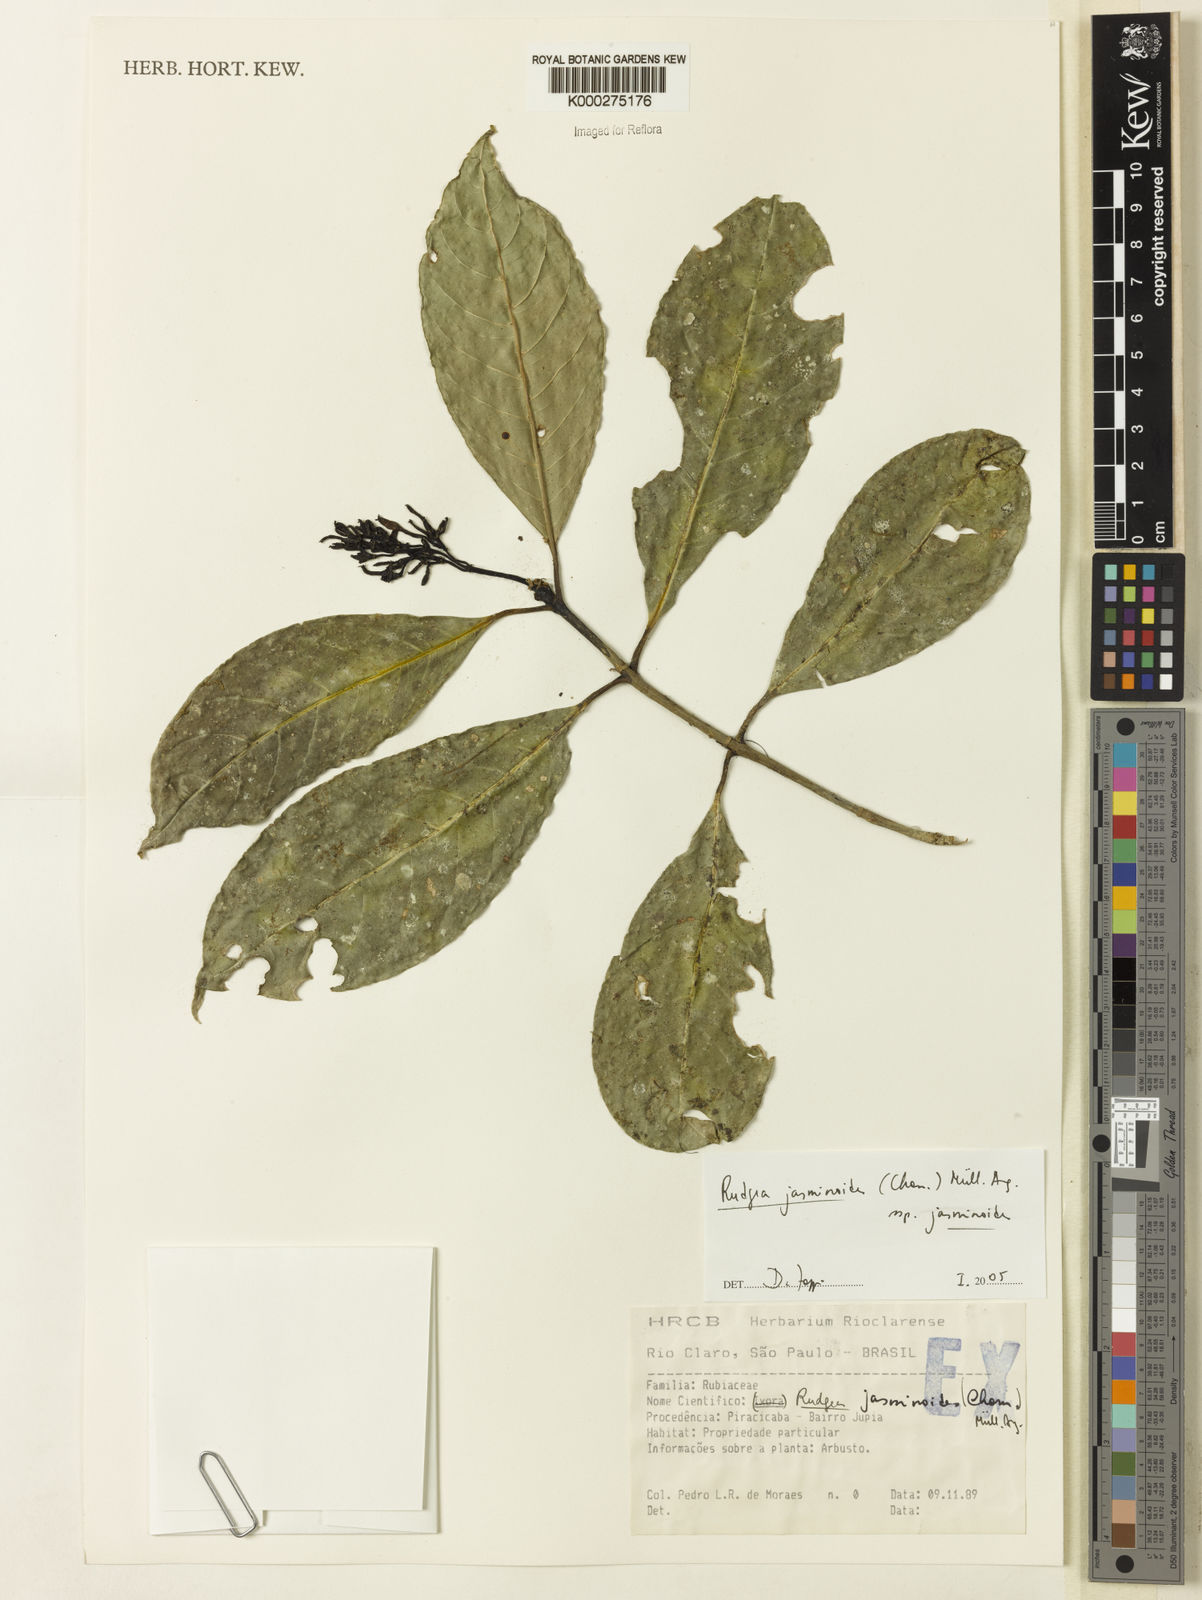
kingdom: Plantae
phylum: Tracheophyta
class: Magnoliopsida
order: Gentianales
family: Rubiaceae
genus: Rudgea
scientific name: Rudgea jasminoides
